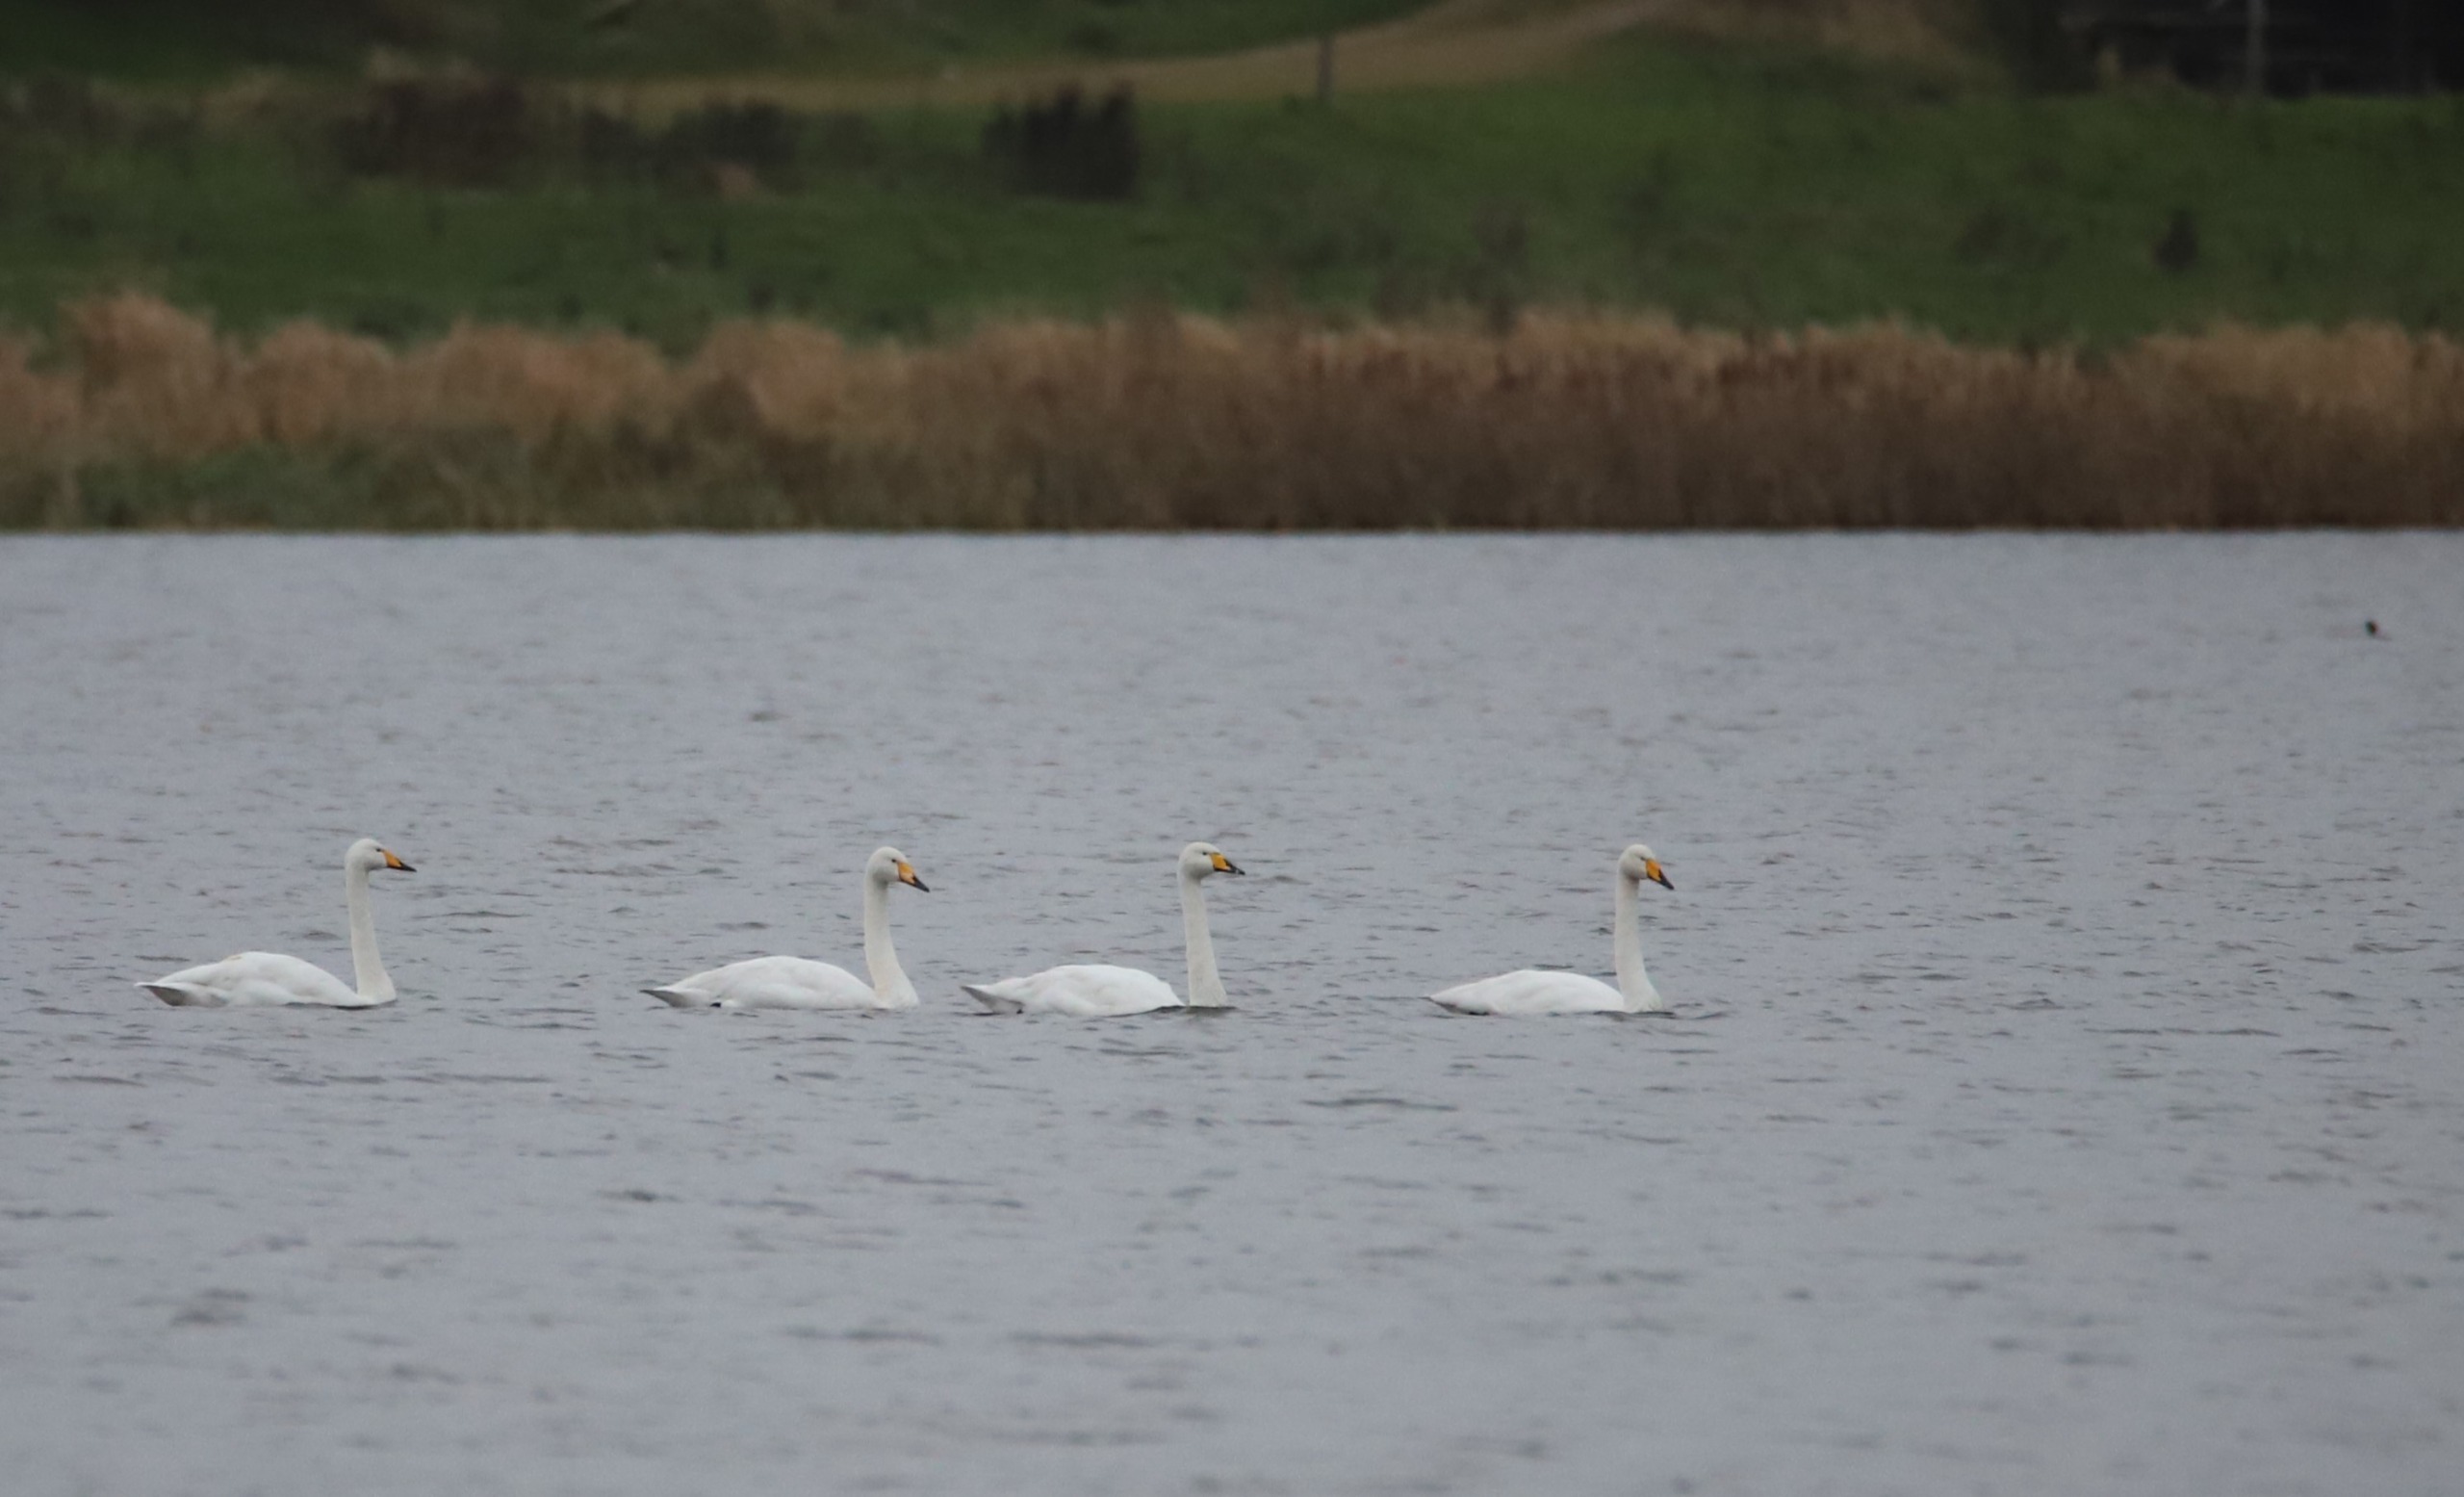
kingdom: Animalia
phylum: Chordata
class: Aves
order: Anseriformes
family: Anatidae
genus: Cygnus
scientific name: Cygnus cygnus
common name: Sangsvane
